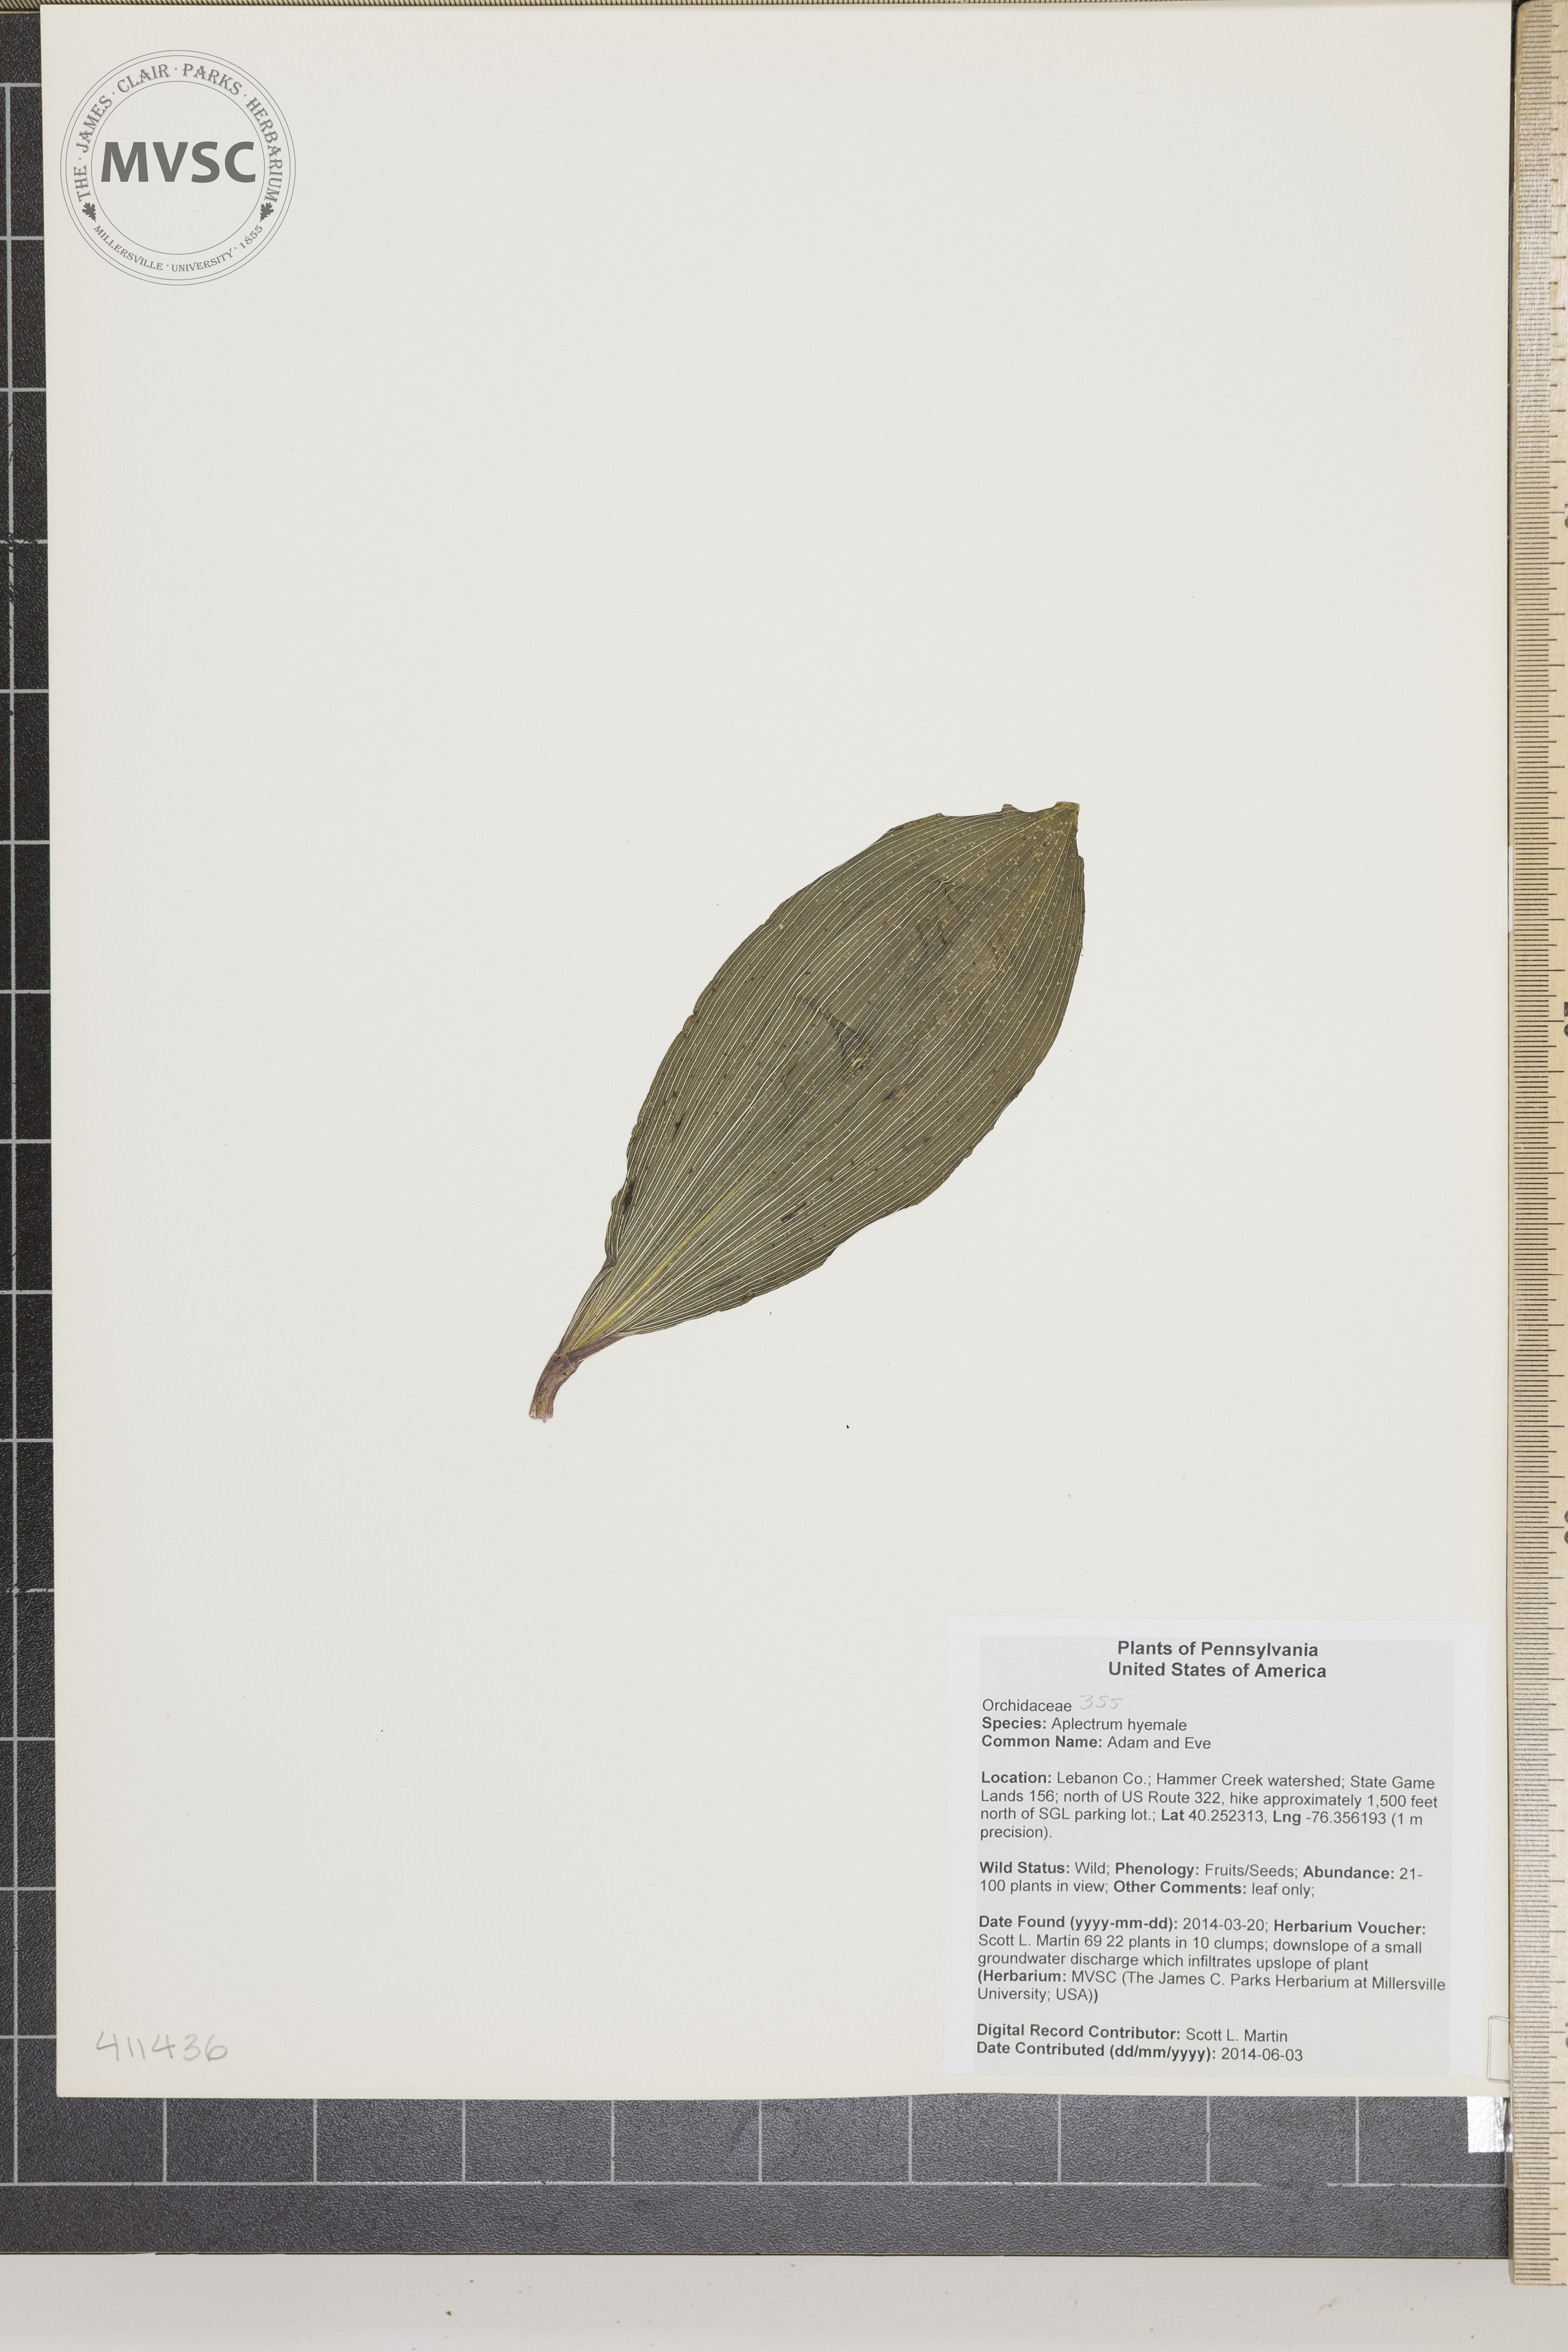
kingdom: Plantae
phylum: Tracheophyta
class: Liliopsida
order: Asparagales
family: Orchidaceae
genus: Aplectrum
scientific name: Aplectrum hyemale
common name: Adam and Eve
